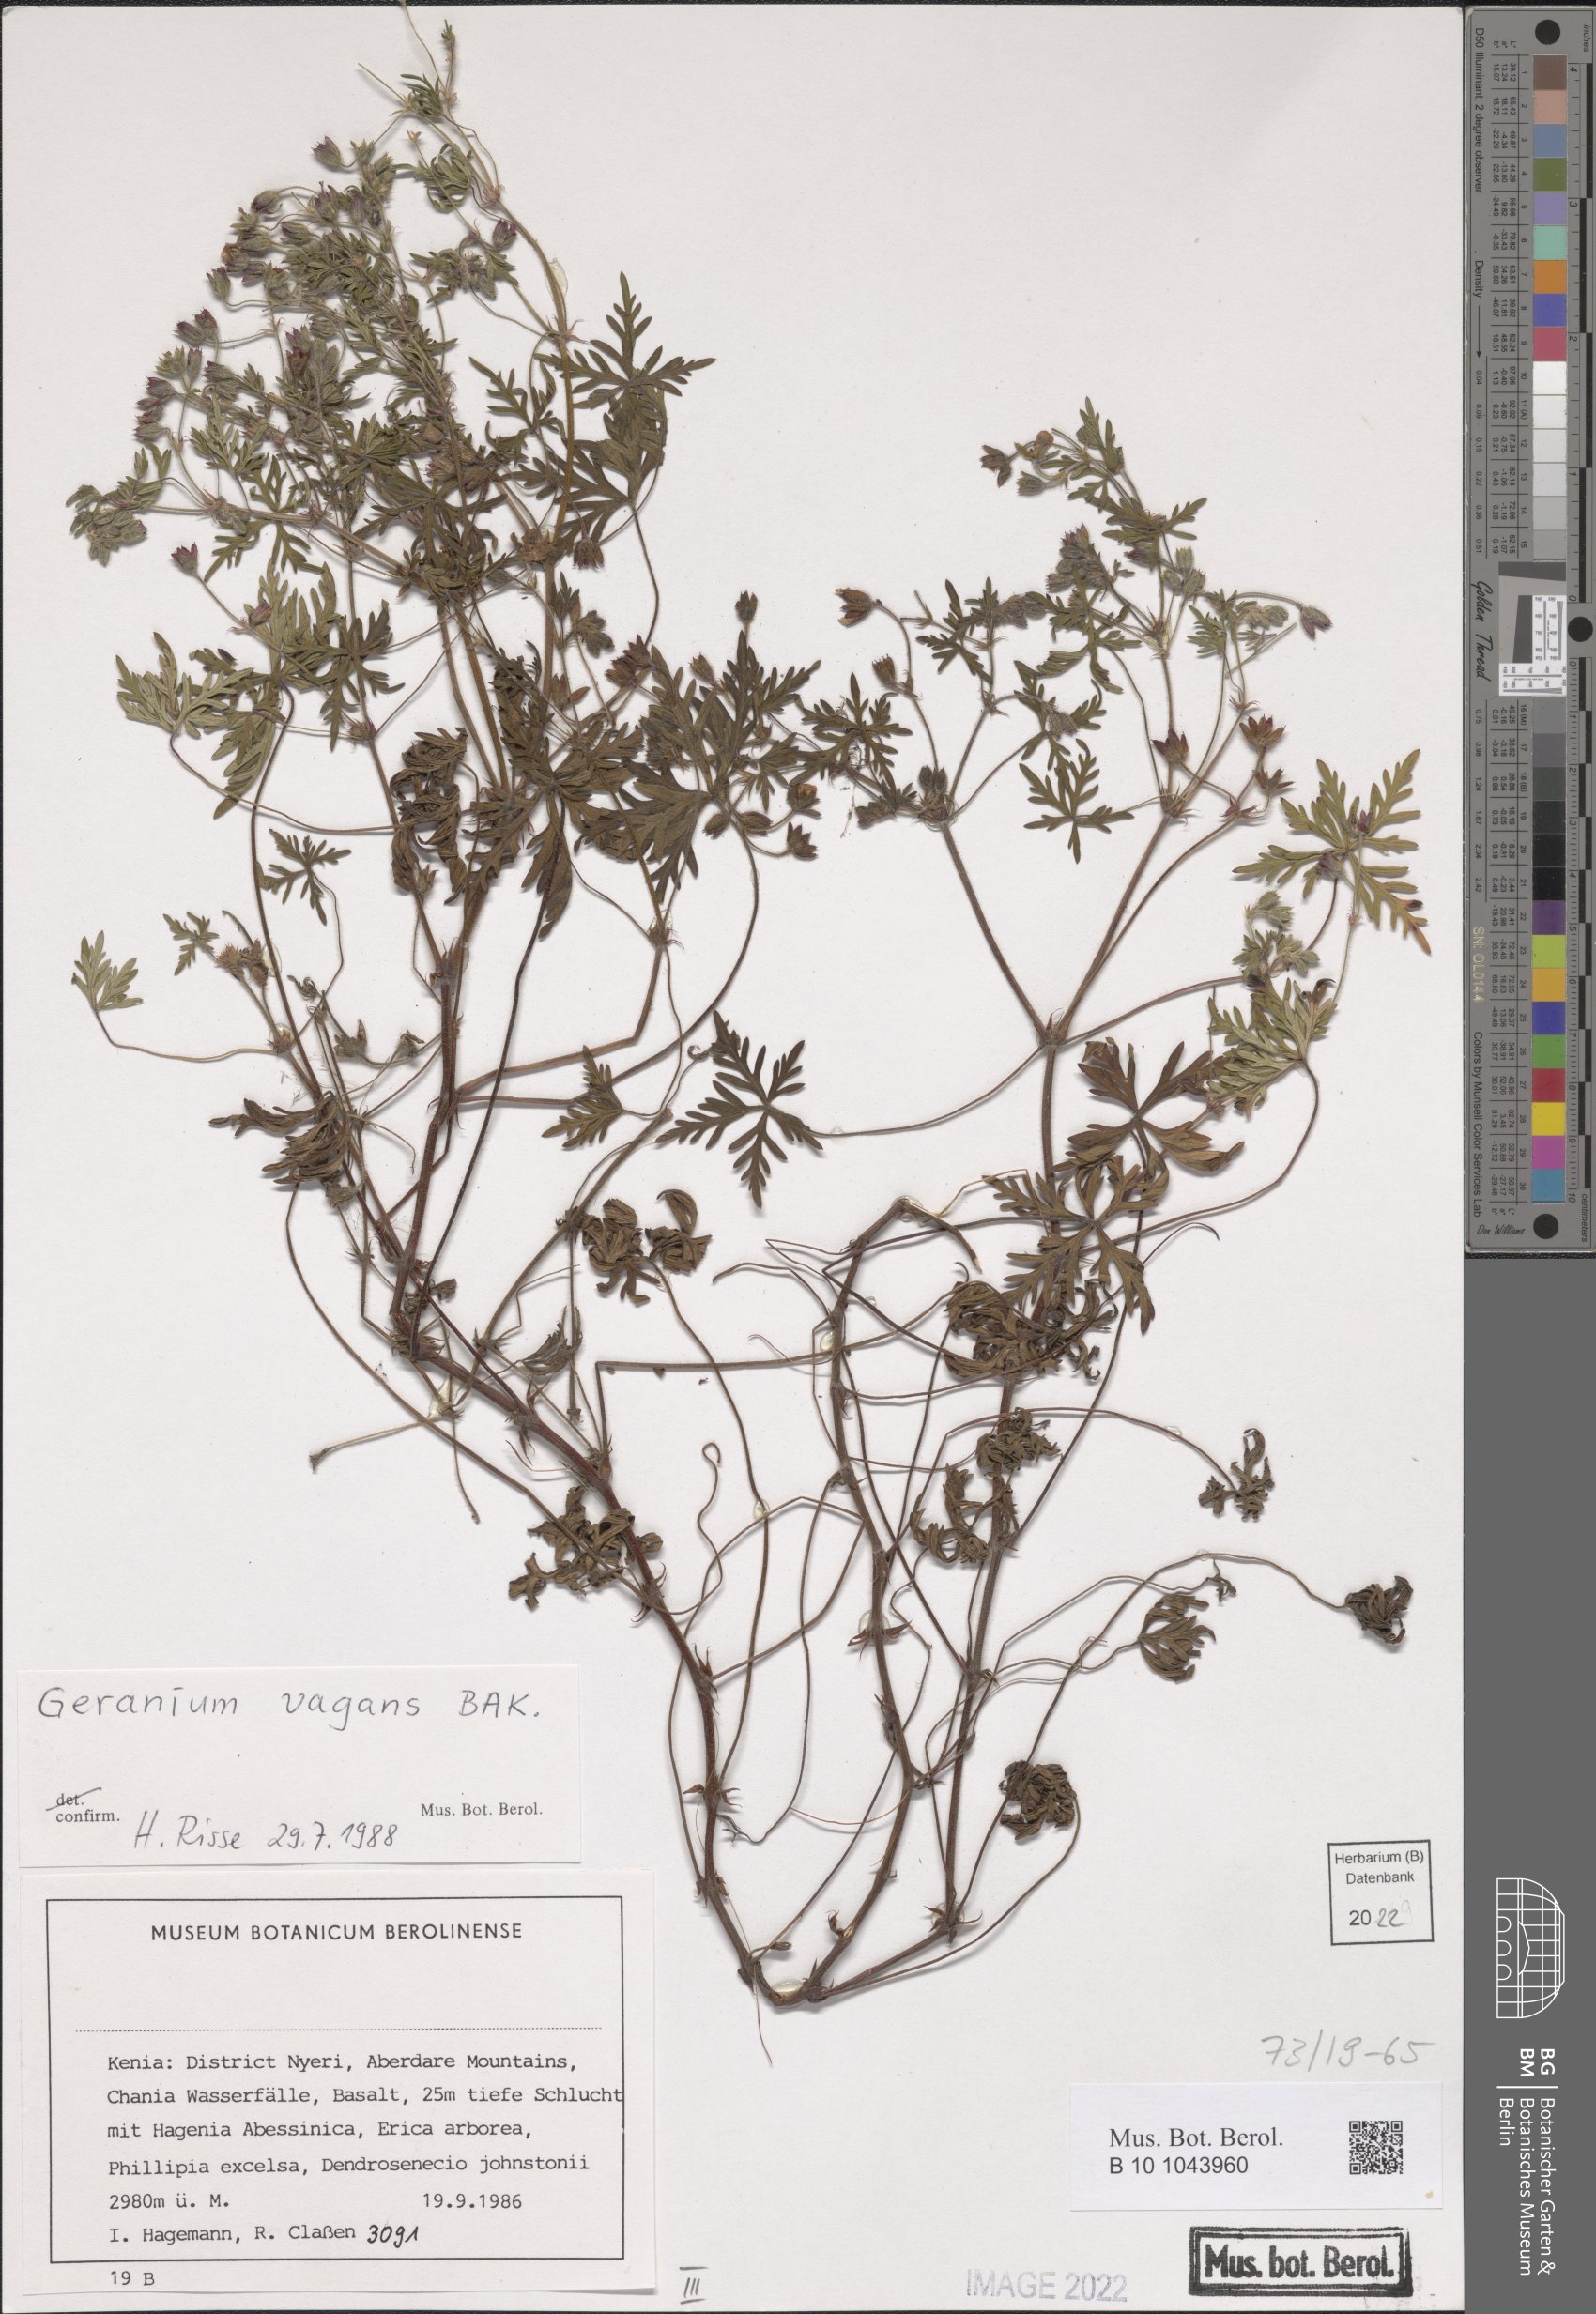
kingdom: Plantae
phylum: Tracheophyta
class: Magnoliopsida
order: Geraniales
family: Geraniaceae
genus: Geranium
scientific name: Geranium vagans
